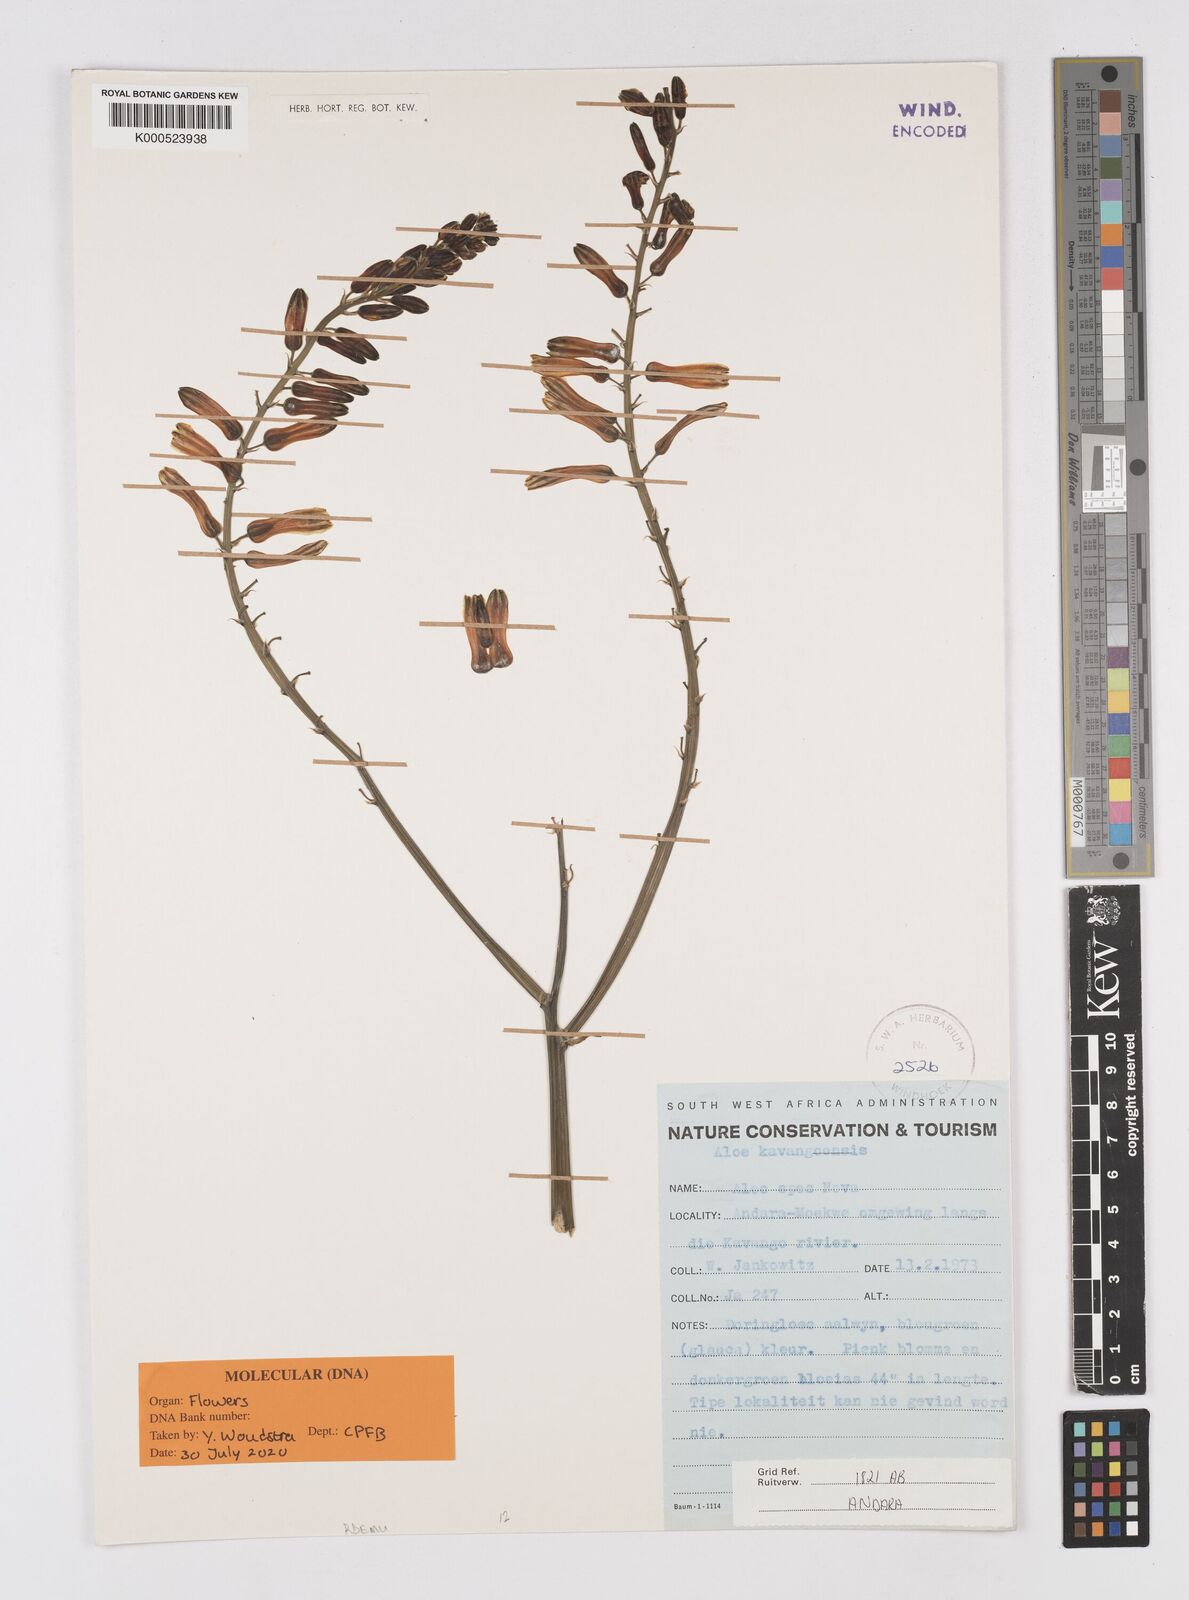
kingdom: Plantae
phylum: Tracheophyta
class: Liliopsida
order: Asparagales
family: Asphodelaceae
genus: Aloe
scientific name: Aloe
